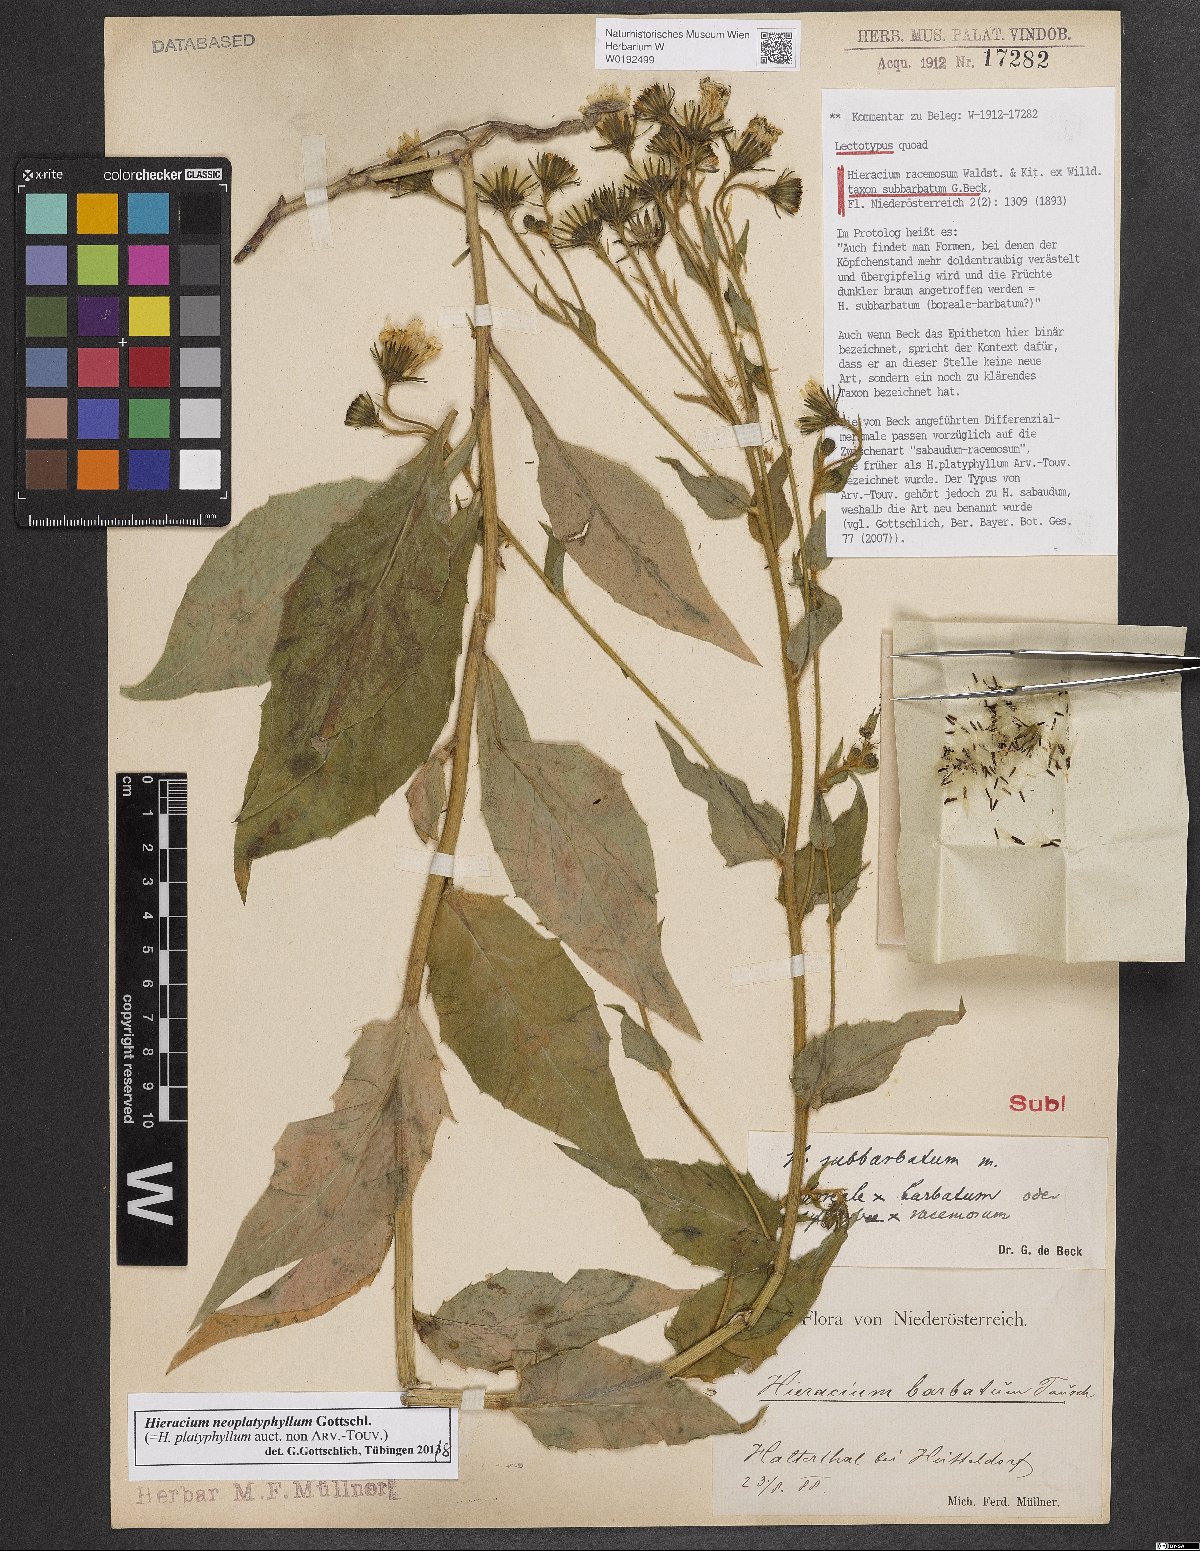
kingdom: Plantae
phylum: Tracheophyta
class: Magnoliopsida
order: Asterales
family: Asteraceae
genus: Hieracium
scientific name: Hieracium racemosum
